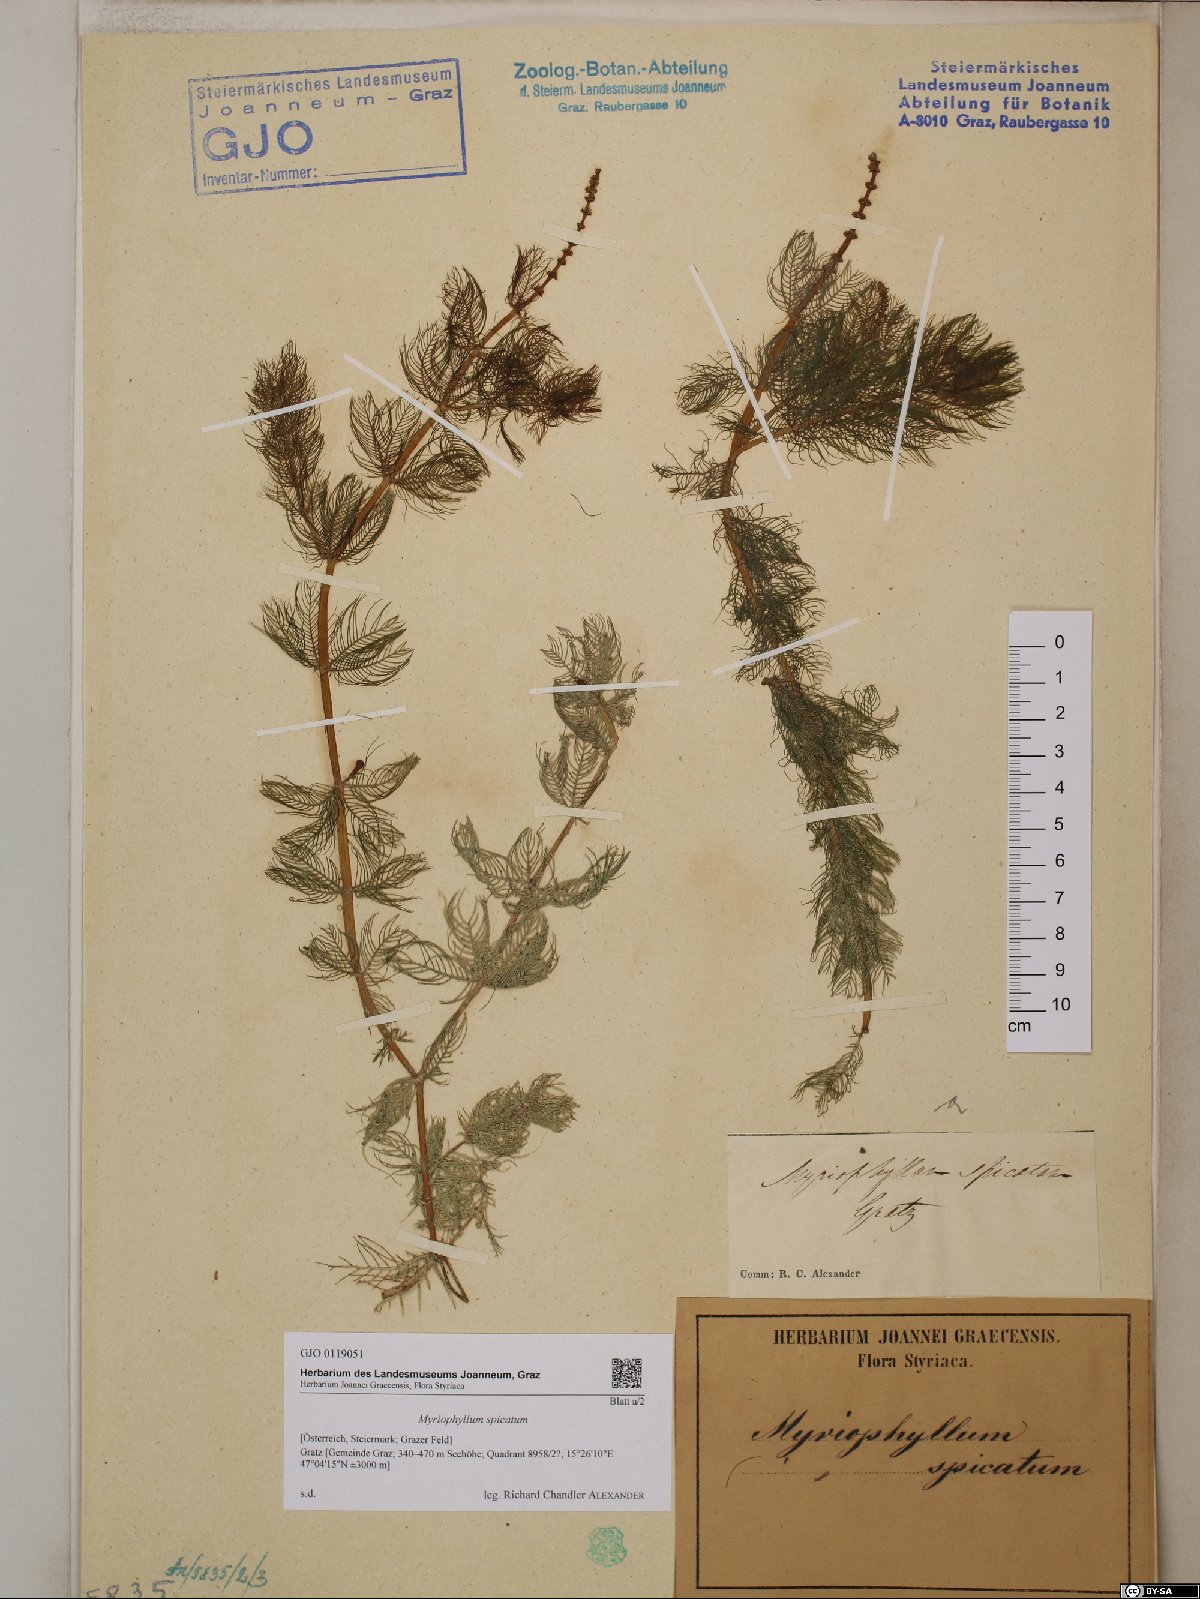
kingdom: Plantae
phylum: Tracheophyta
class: Magnoliopsida
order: Saxifragales
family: Haloragaceae
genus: Myriophyllum
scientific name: Myriophyllum spicatum
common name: Spiked water-milfoil
